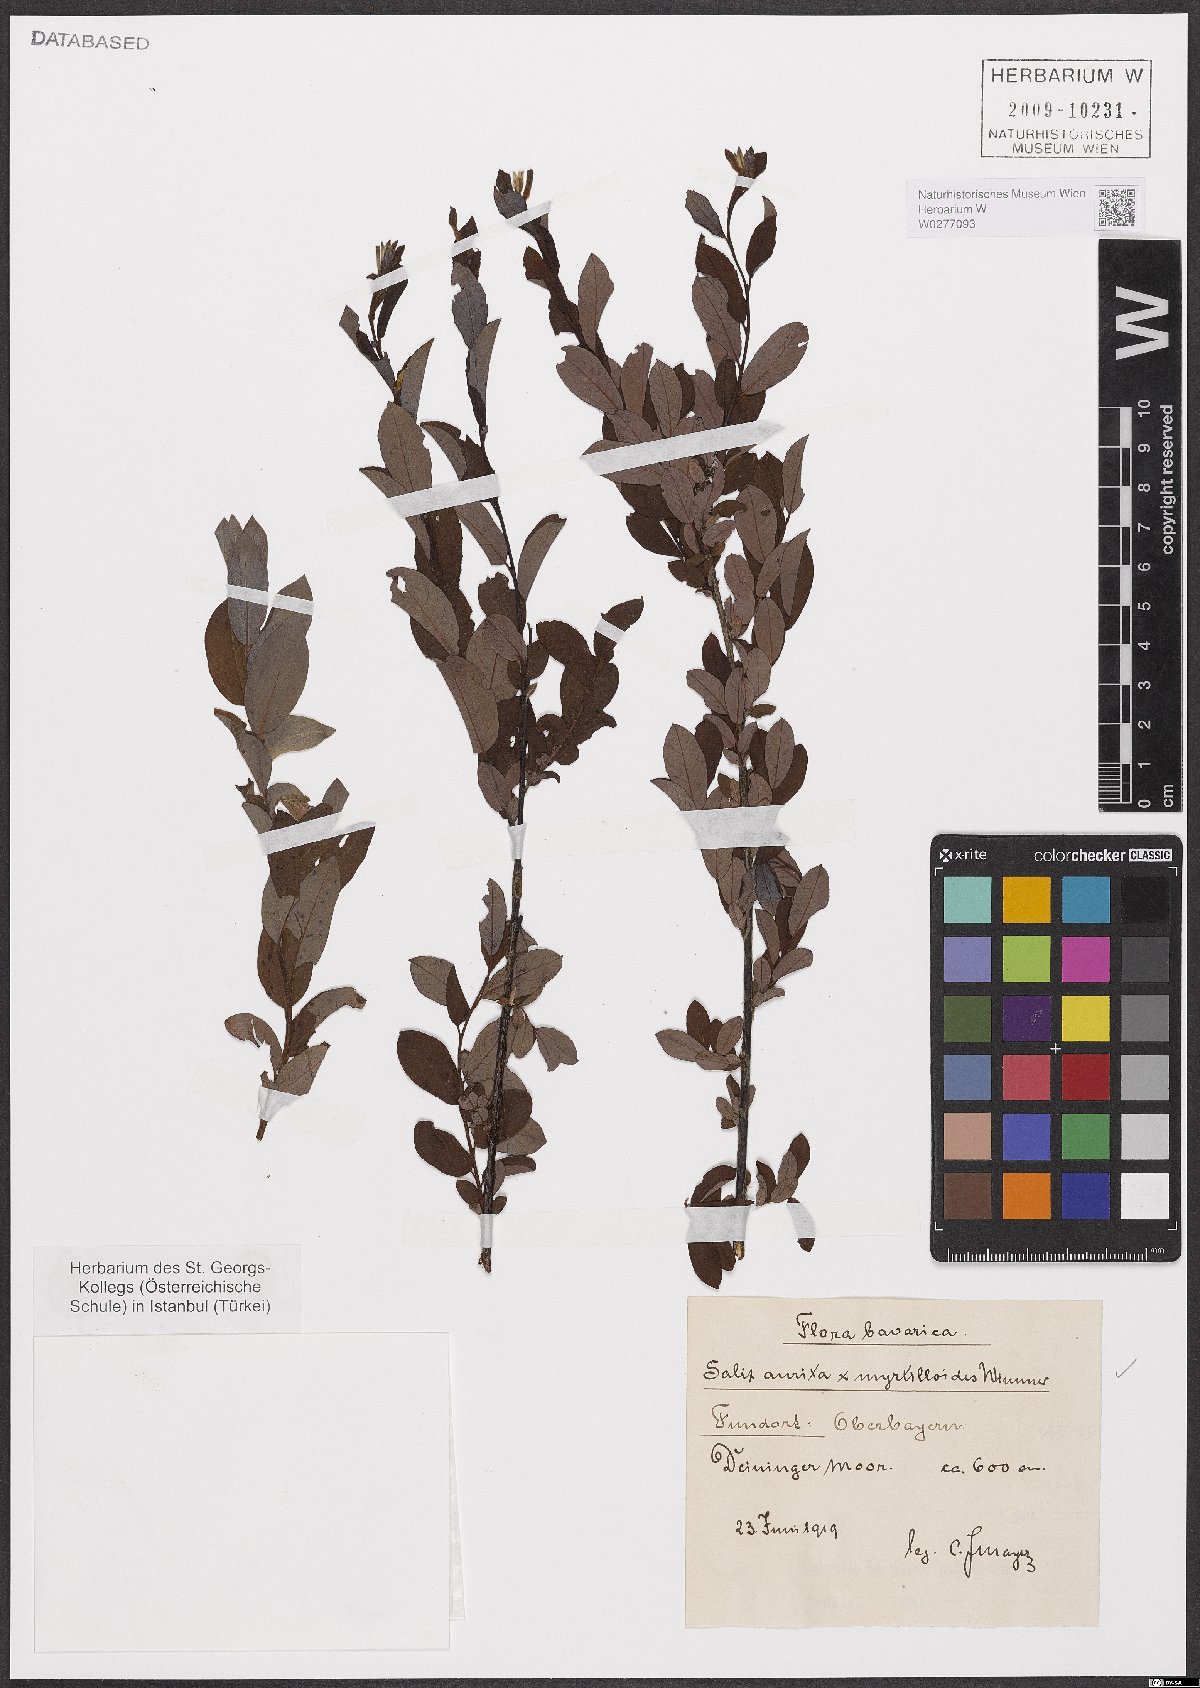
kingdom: Plantae
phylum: Tracheophyta
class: Magnoliopsida
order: Malpighiales
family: Salicaceae
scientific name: Salicaceae
